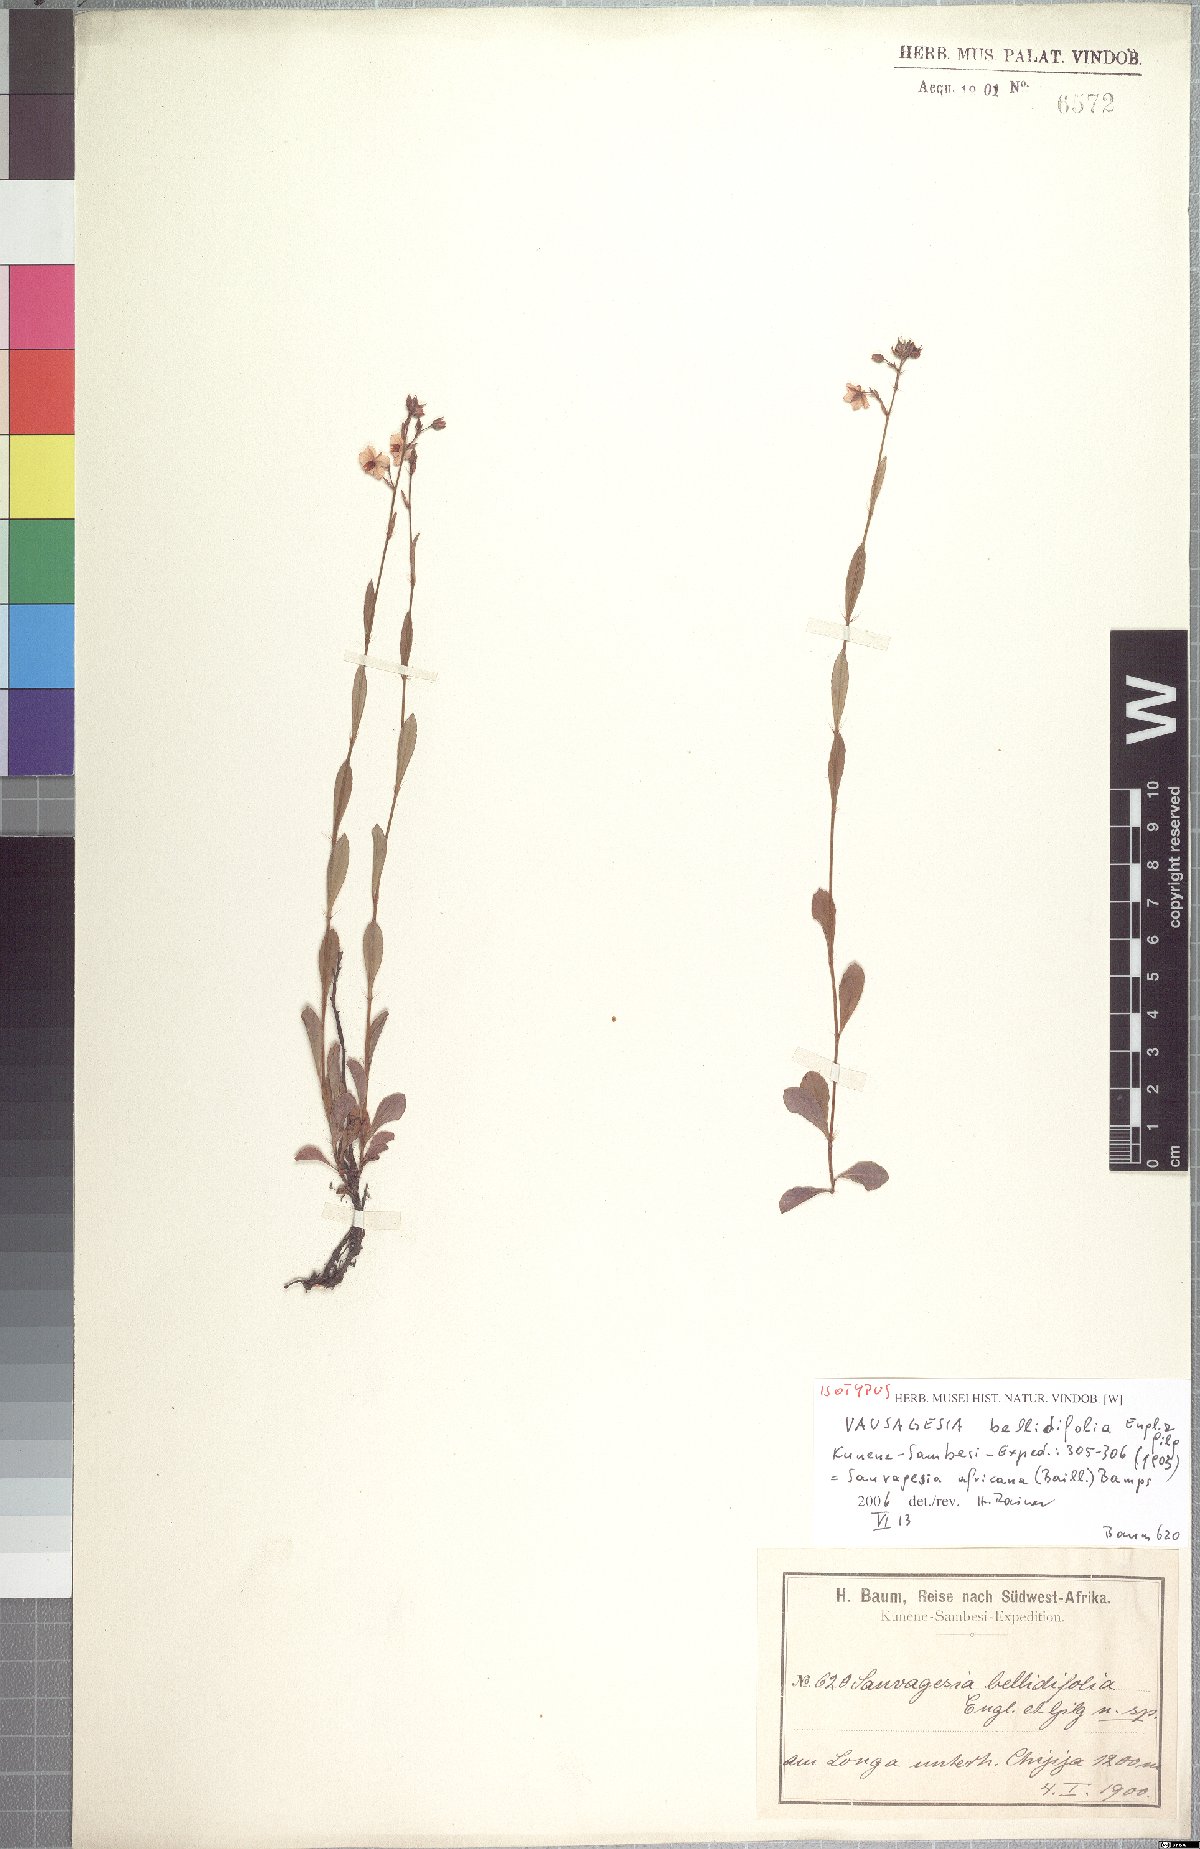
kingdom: Plantae
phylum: Tracheophyta
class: Magnoliopsida
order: Malpighiales
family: Ochnaceae
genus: Sauvagesia
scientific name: Sauvagesia africana
